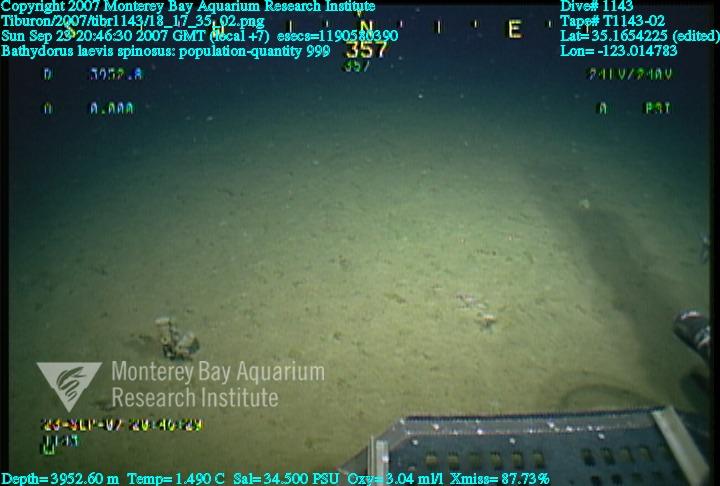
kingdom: Animalia
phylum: Porifera
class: Hexactinellida
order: Lyssacinosida
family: Rossellidae
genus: Bathydorus
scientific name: Bathydorus spinosus
